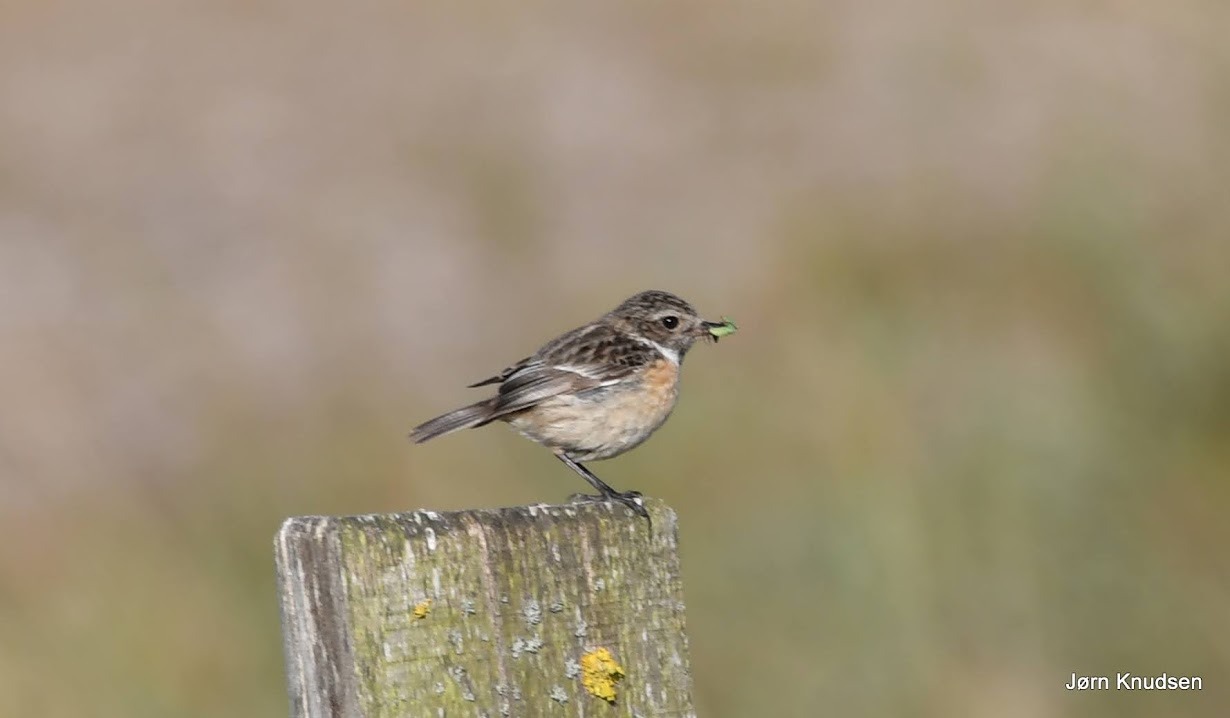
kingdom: Animalia
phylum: Chordata
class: Aves
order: Passeriformes
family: Muscicapidae
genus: Saxicola
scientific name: Saxicola rubicola
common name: Sortstrubet bynkefugl
